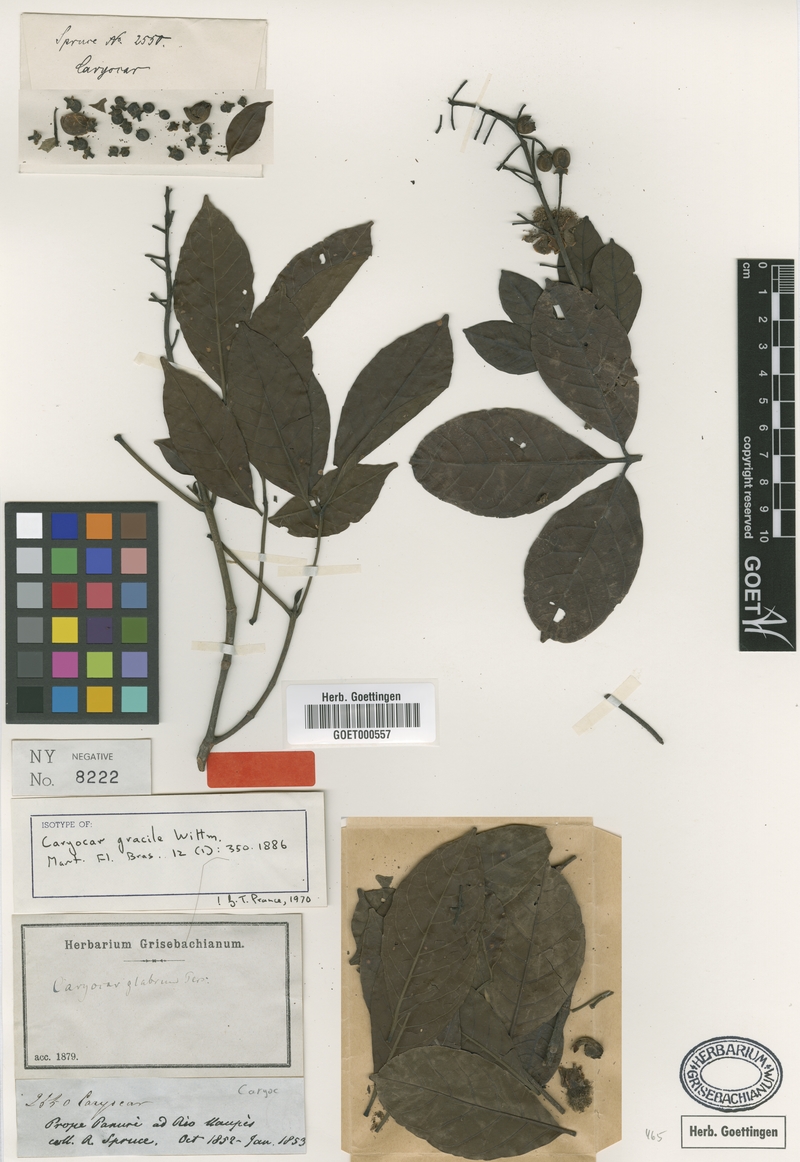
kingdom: Plantae
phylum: Tracheophyta
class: Magnoliopsida
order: Malpighiales
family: Caryocaraceae
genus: Caryocar
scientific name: Caryocar gracile
